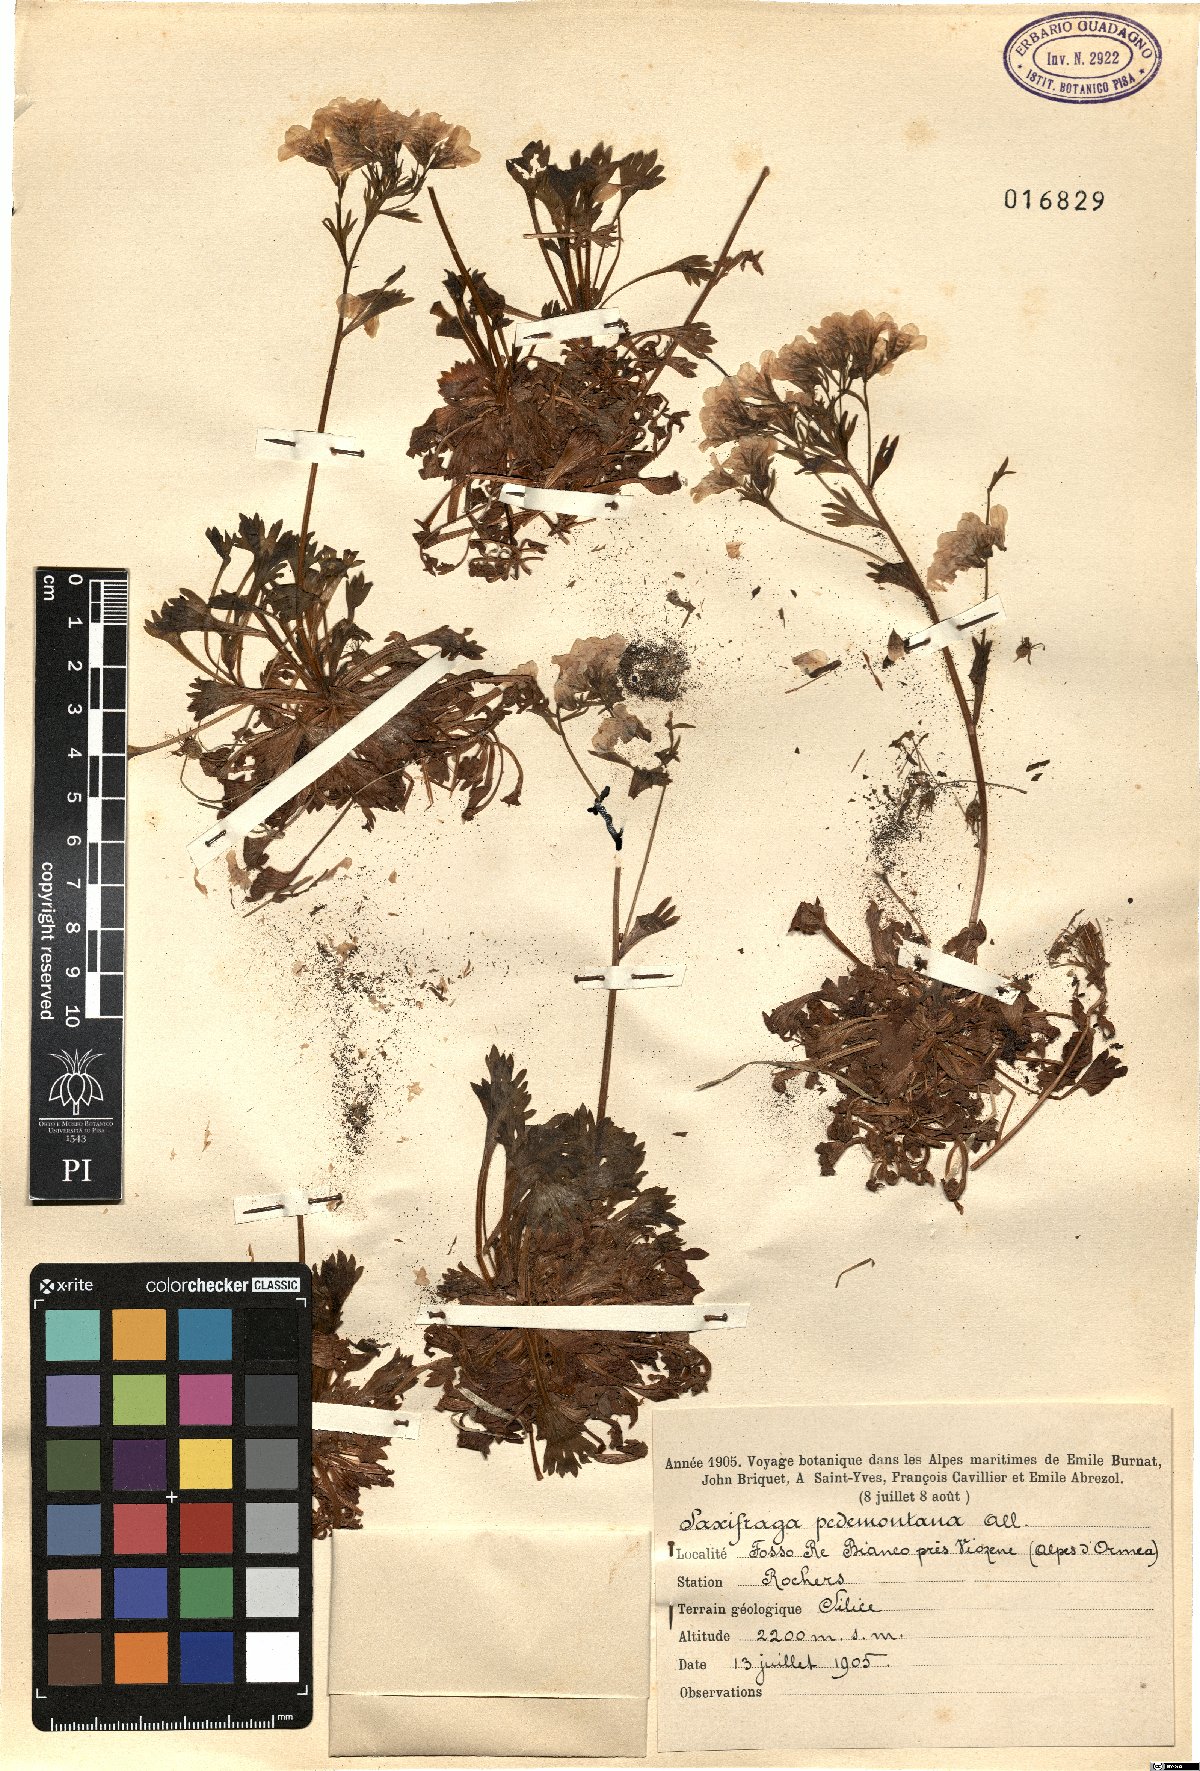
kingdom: Plantae
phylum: Tracheophyta
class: Magnoliopsida
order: Saxifragales
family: Saxifragaceae
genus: Saxifraga
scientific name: Saxifraga pedemontana
